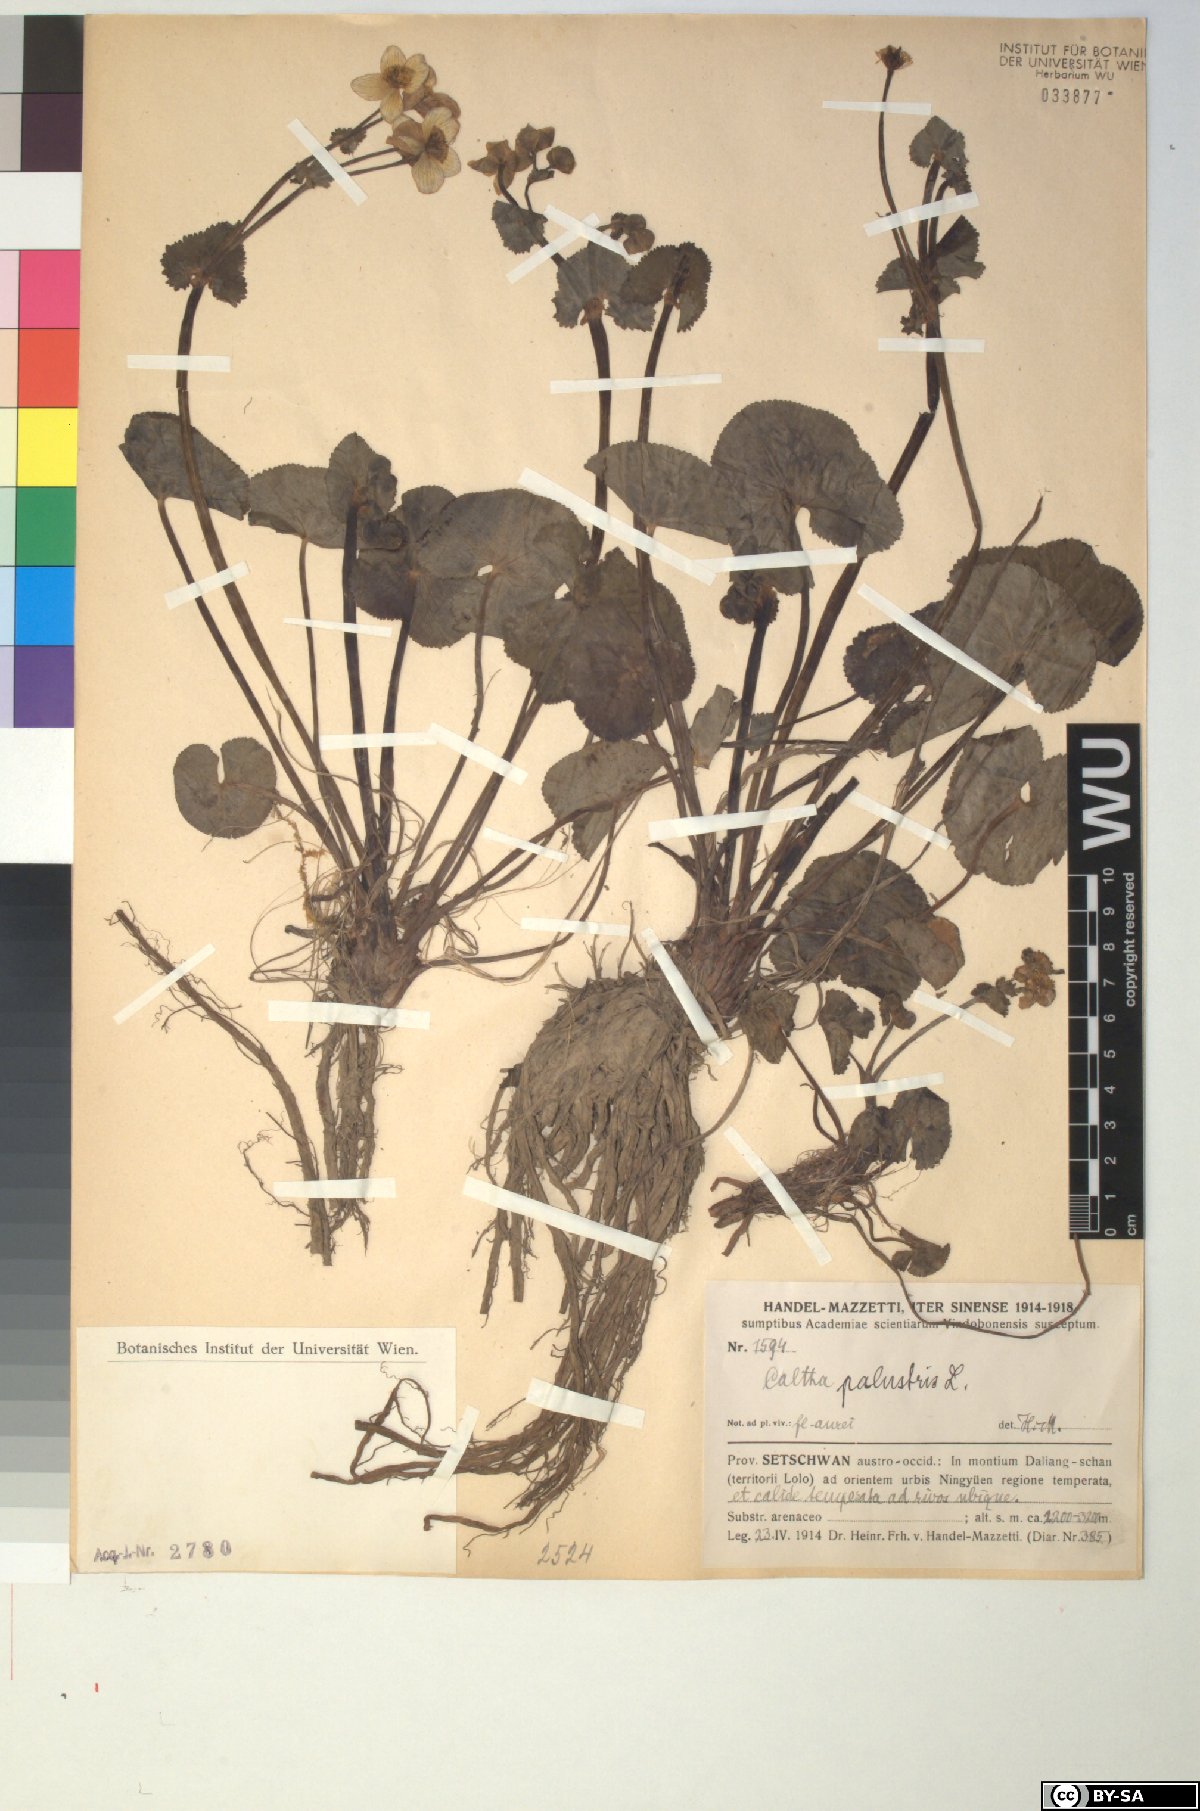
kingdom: Plantae
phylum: Tracheophyta
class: Magnoliopsida
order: Ranunculales
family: Ranunculaceae
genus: Caltha
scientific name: Caltha palustris
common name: Marsh marigold
